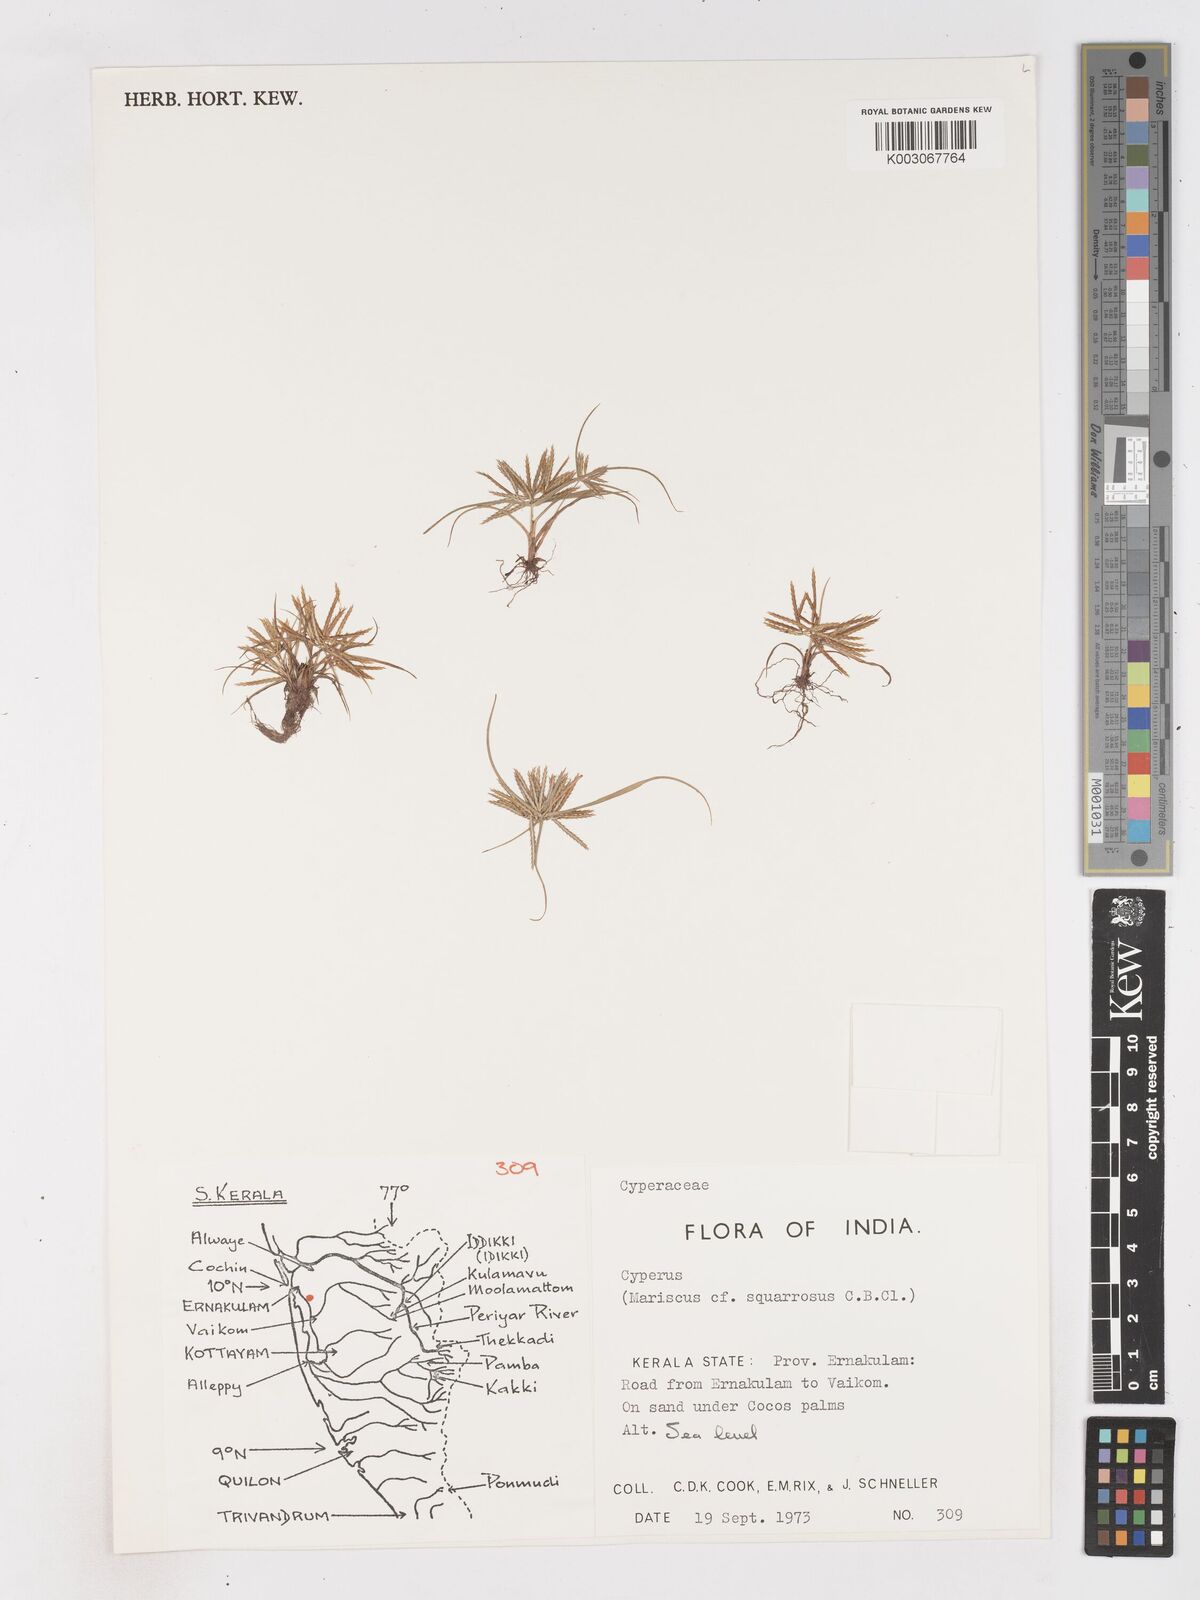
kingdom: Plantae
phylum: Tracheophyta
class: Liliopsida
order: Poales
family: Cyperaceae
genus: Cyperus
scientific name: Cyperus maderaspatanus
